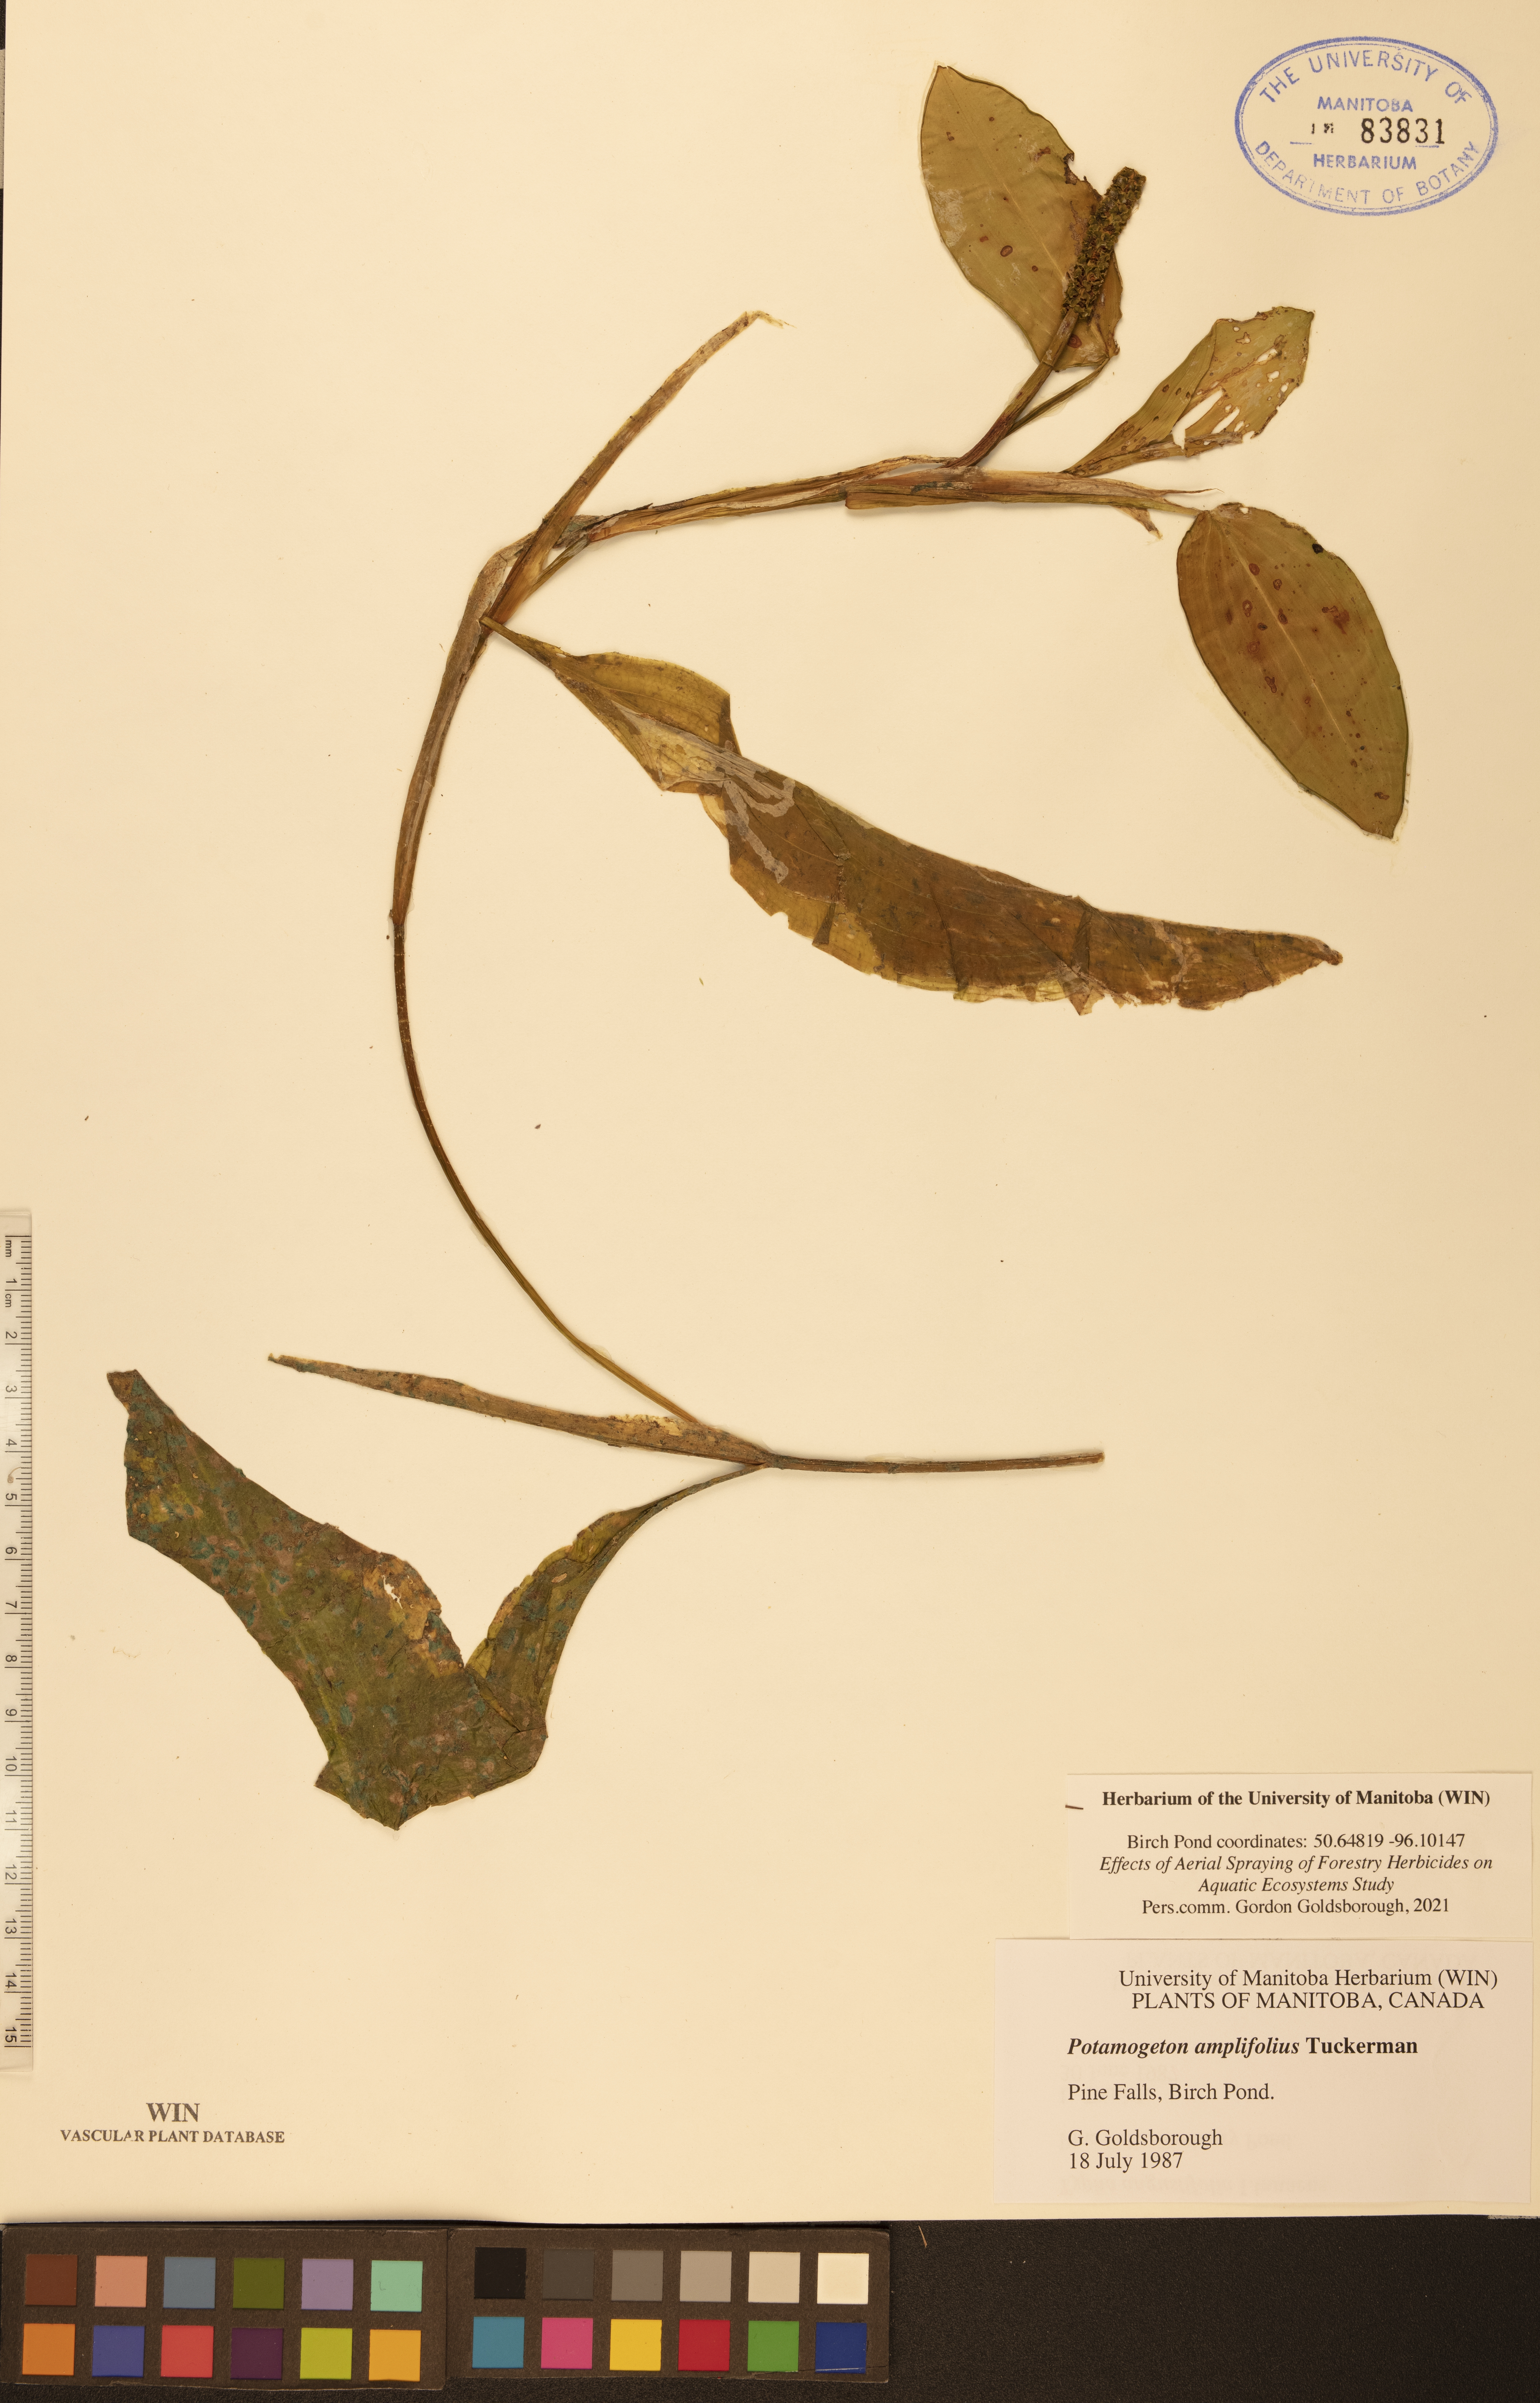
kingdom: Plantae
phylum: Tracheophyta
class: Liliopsida
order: Alismatales
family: Potamogetonaceae
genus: Potamogeton
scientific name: Potamogeton amplifolius
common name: Broad-leaved pondweed
